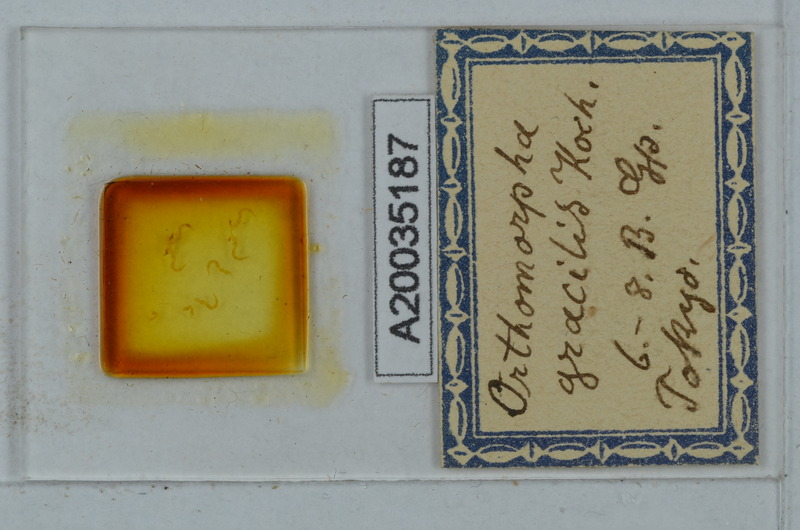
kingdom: Animalia
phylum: Arthropoda
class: Diplopoda
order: Polydesmida
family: Paradoxosomatidae
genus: Oxidus
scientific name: Oxidus gracilis
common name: Greenhouse millipede
